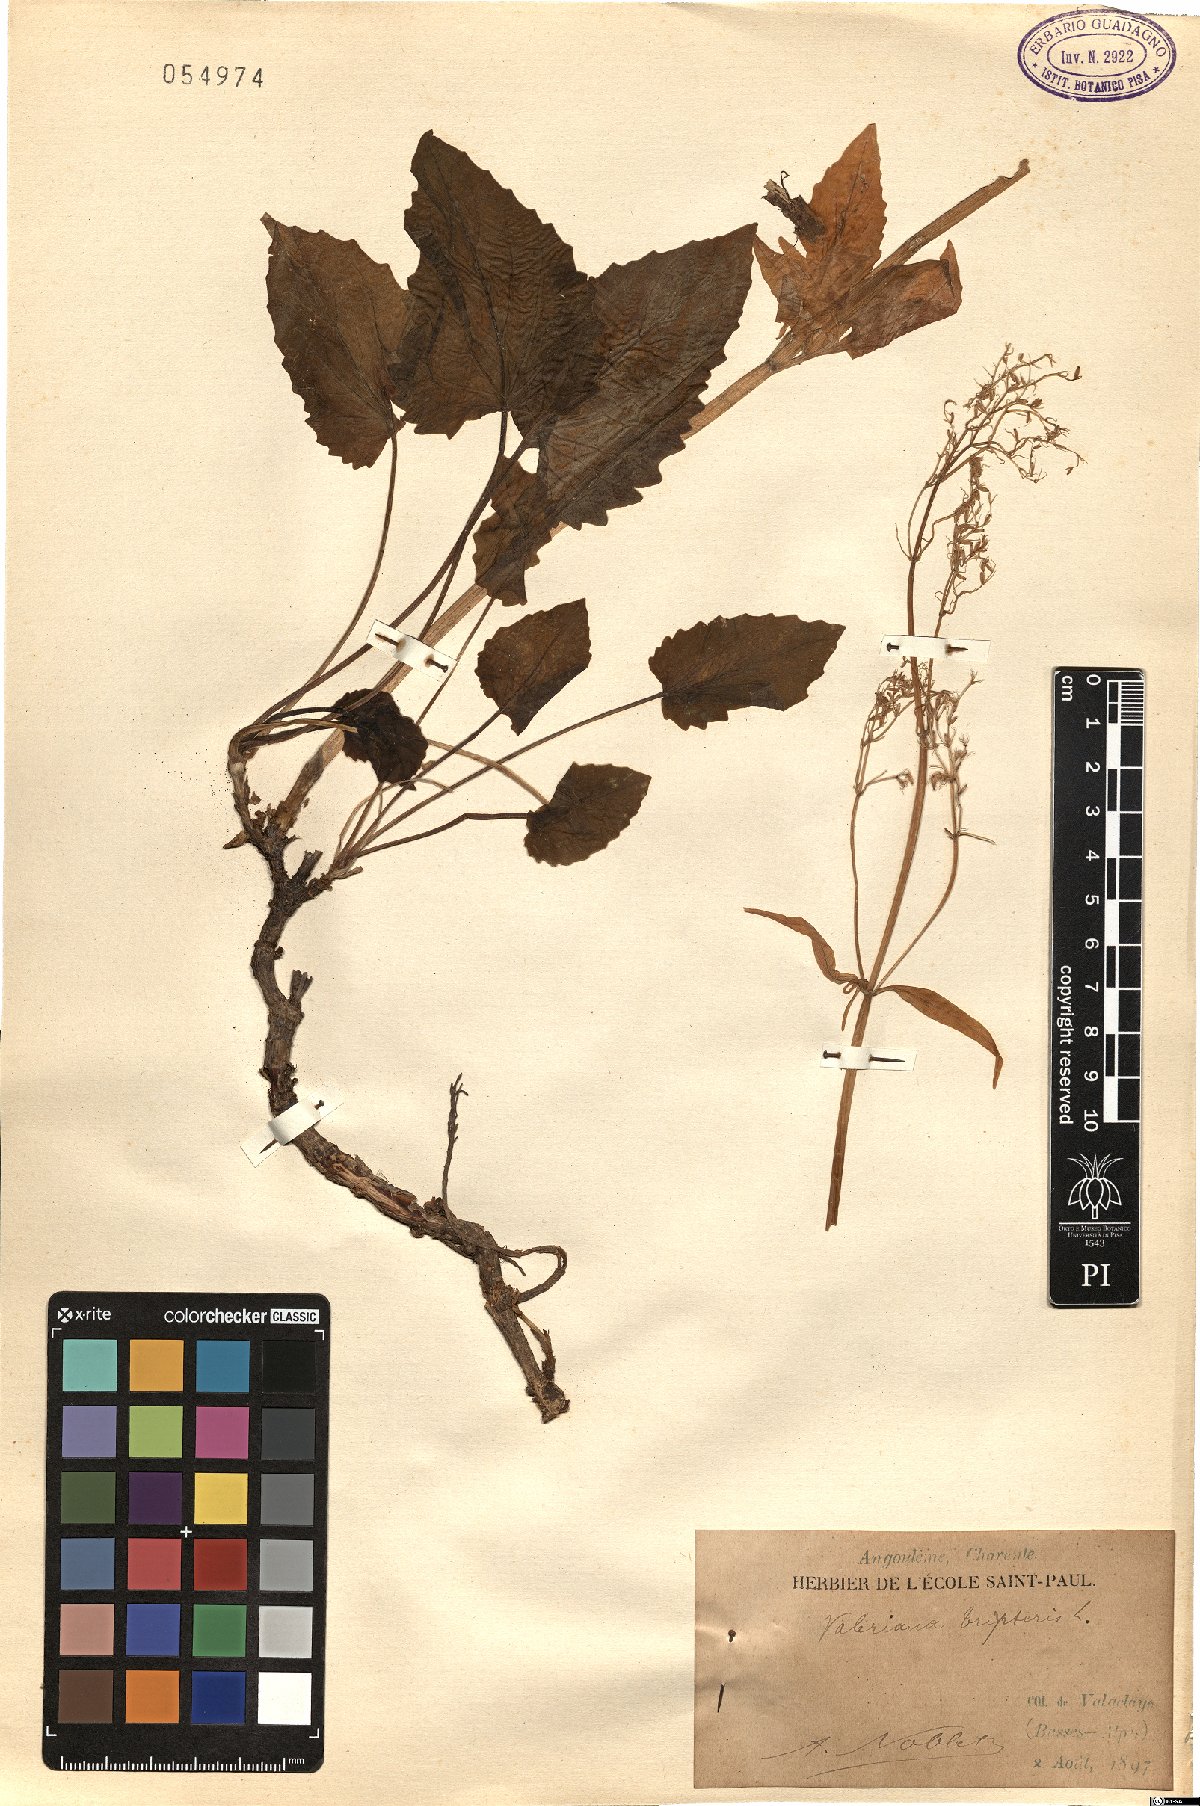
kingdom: Plantae
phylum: Tracheophyta
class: Magnoliopsida
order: Dipsacales
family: Caprifoliaceae
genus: Valeriana
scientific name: Valeriana tripteris
